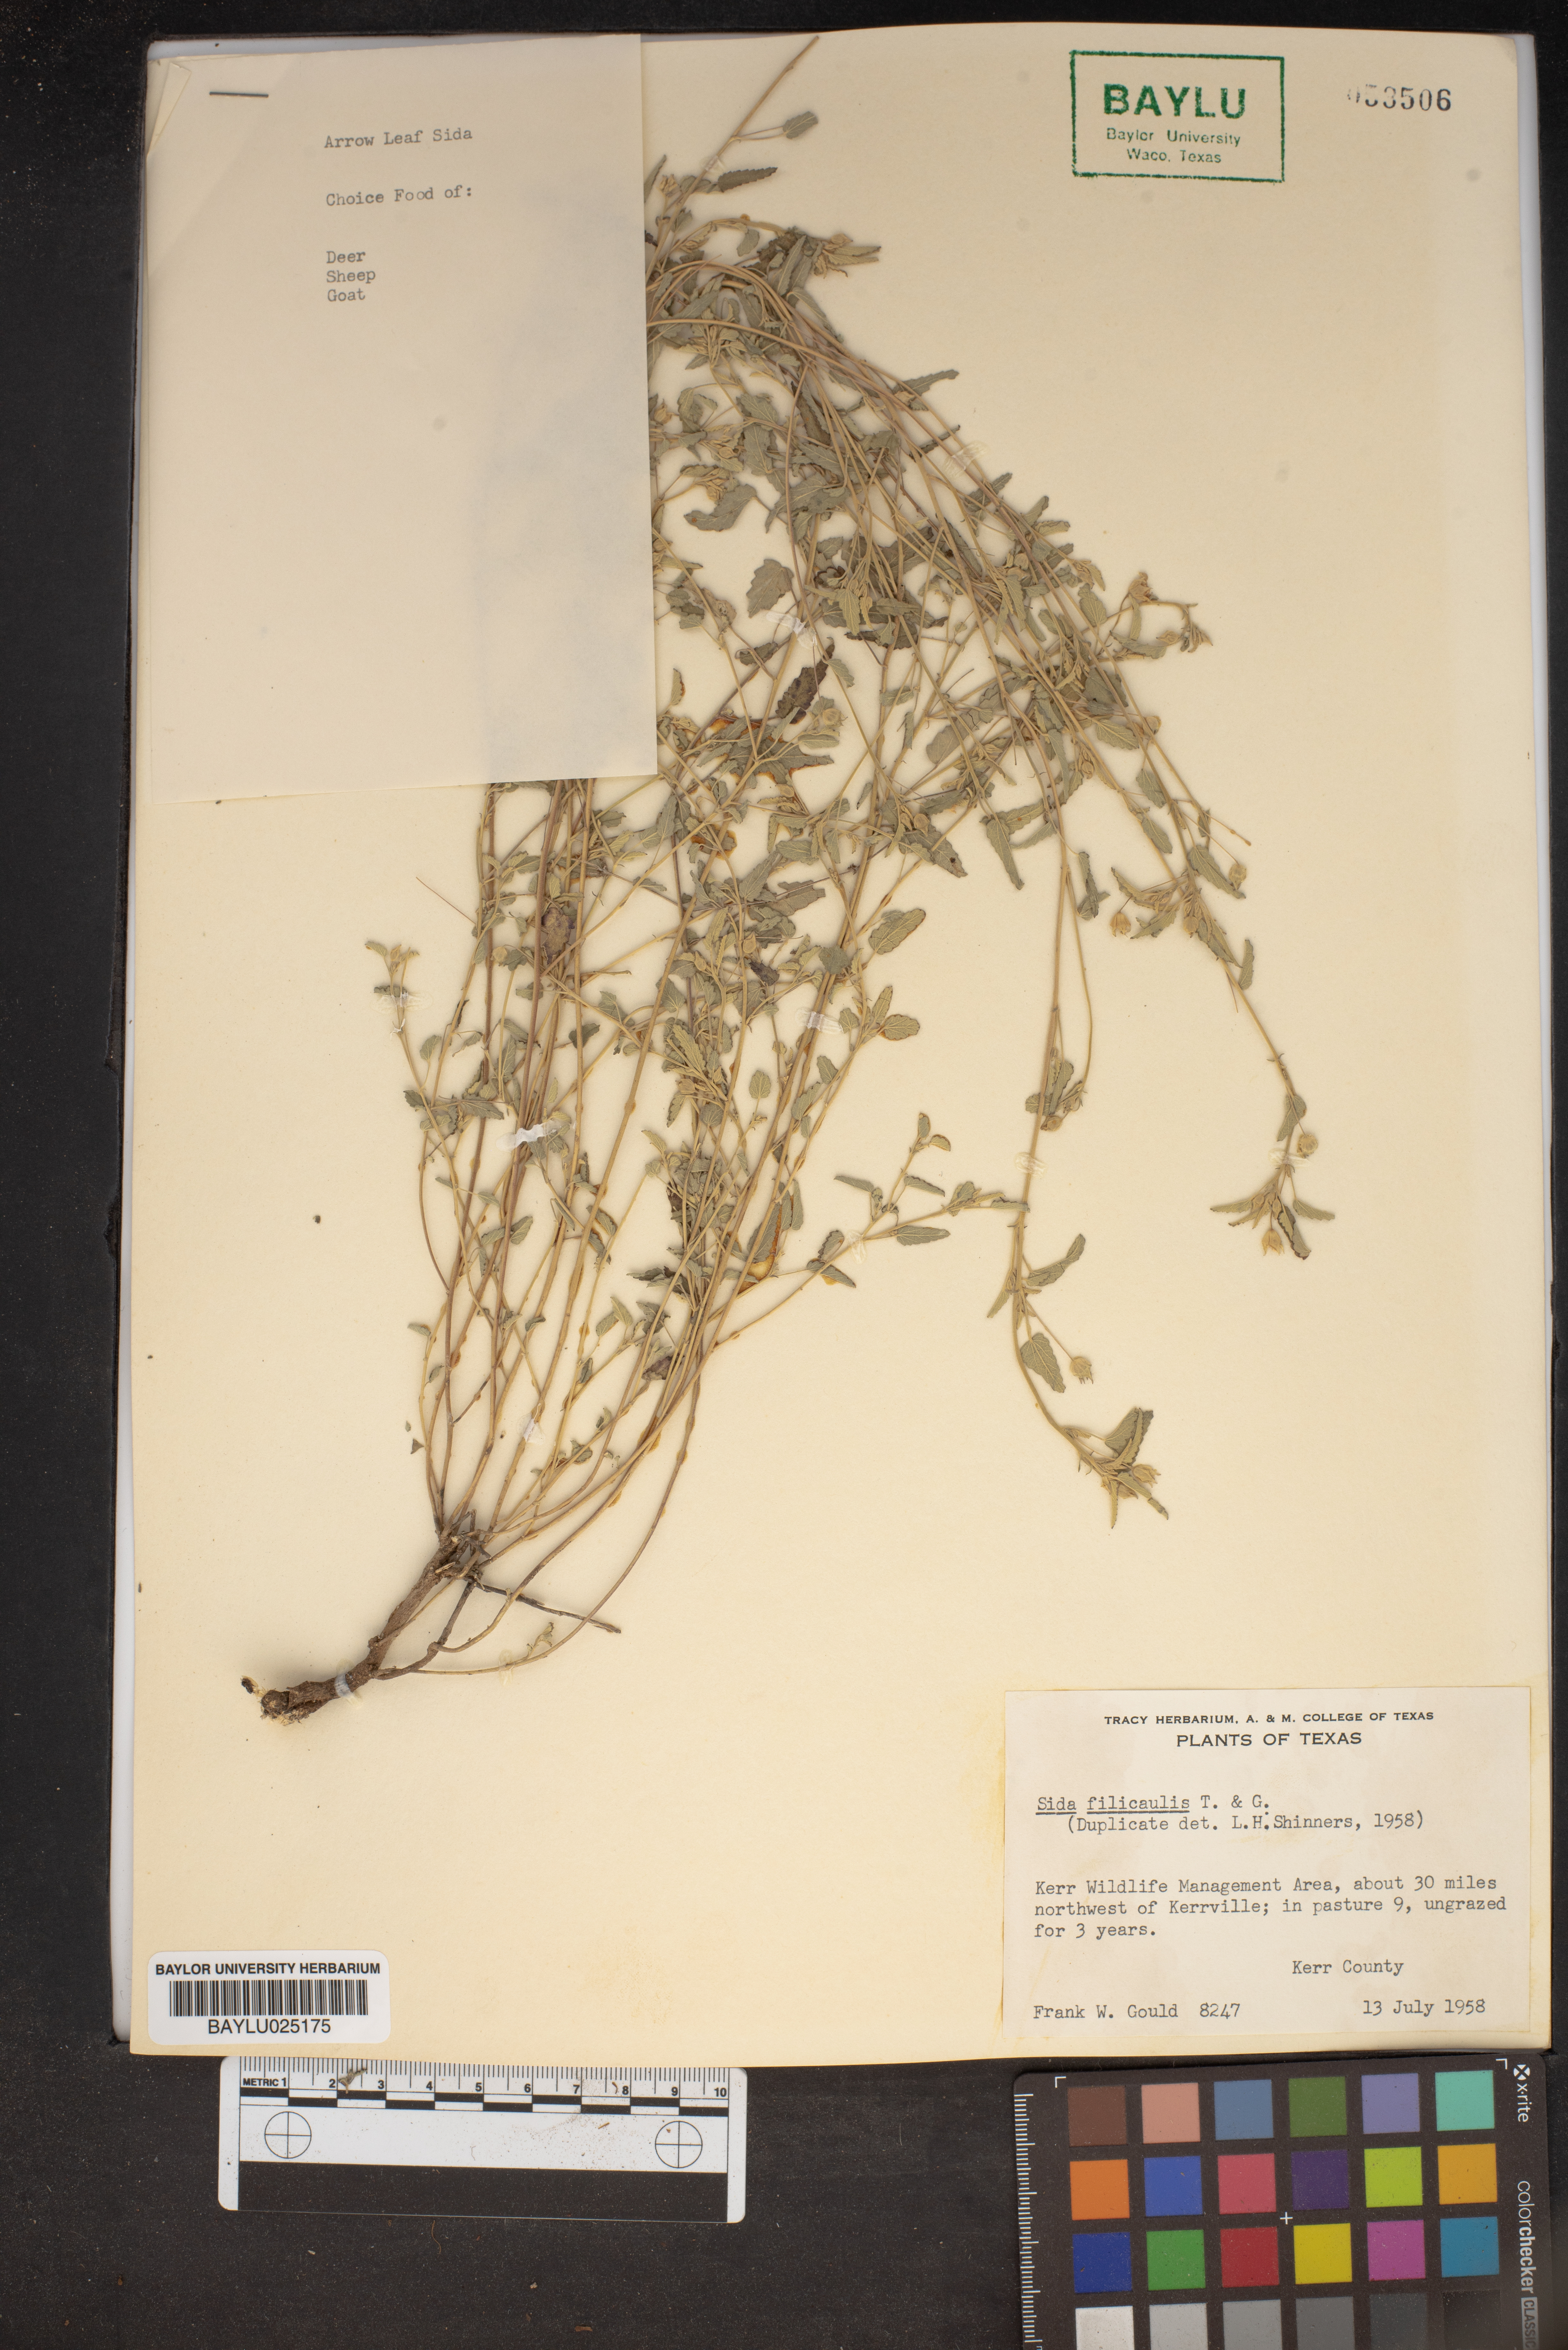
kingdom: Plantae
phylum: Tracheophyta
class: Magnoliopsida
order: Malvales
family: Malvaceae
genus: Sida
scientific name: Sida abutilifolia
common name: Spreading fanpetals
